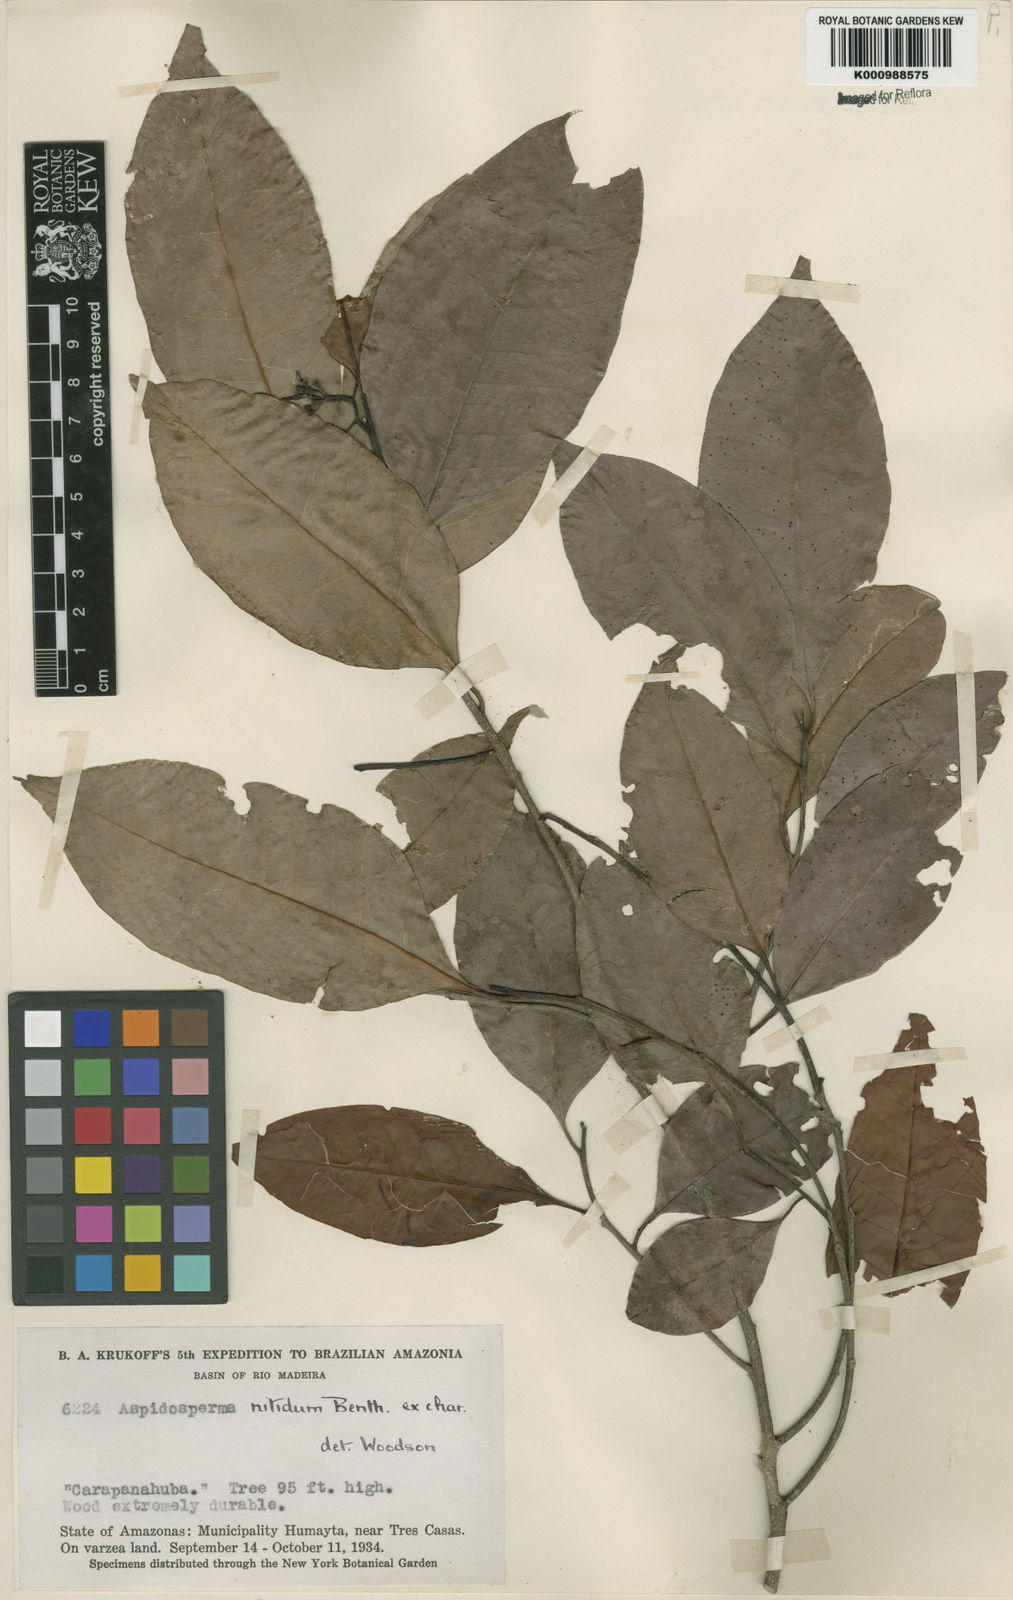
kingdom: Plantae
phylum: Tracheophyta
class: Magnoliopsida
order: Gentianales
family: Apocynaceae
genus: Aspidosperma
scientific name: Aspidosperma
